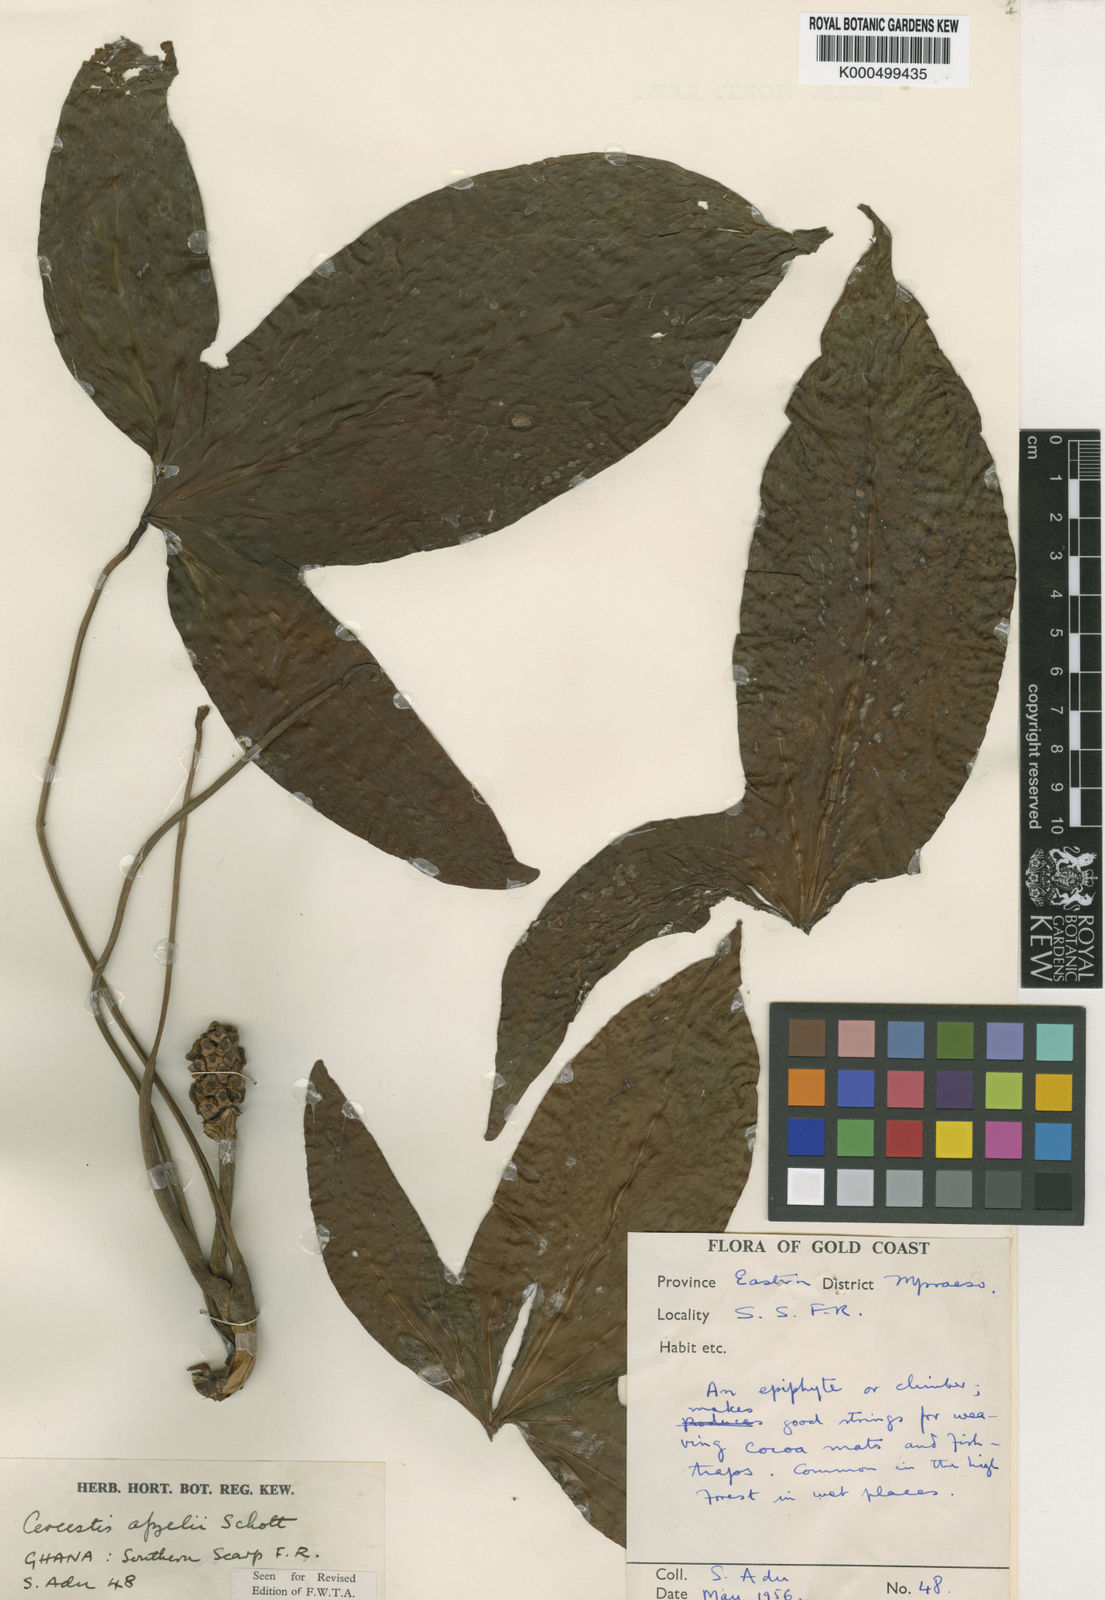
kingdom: Plantae
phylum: Tracheophyta
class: Liliopsida
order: Alismatales
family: Araceae
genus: Cercestis
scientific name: Cercestis afzelii
